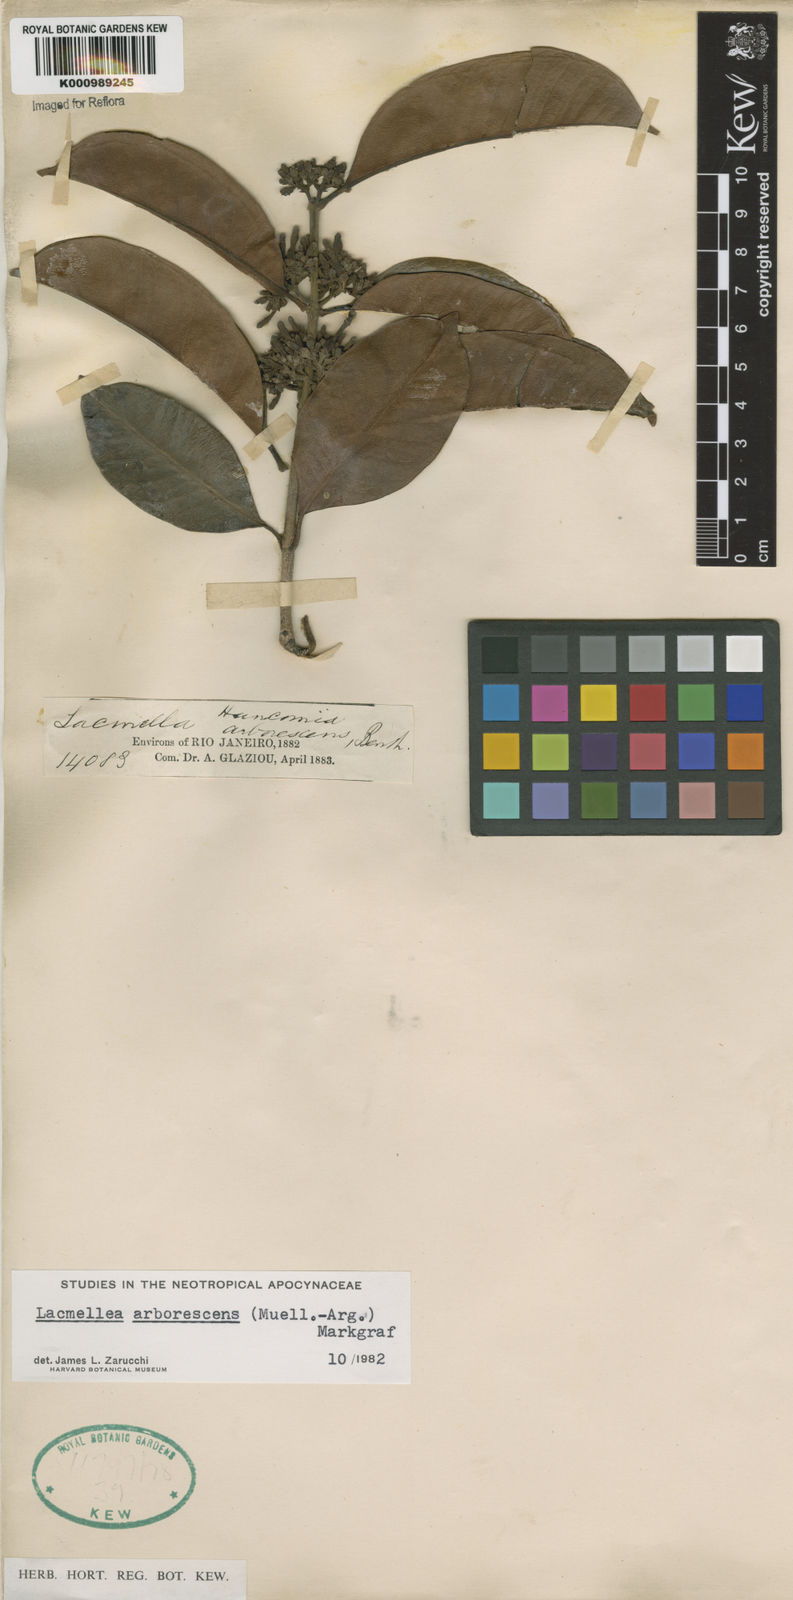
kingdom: Plantae
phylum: Tracheophyta
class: Magnoliopsida
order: Gentianales
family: Apocynaceae
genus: Lacmellea
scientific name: Lacmellea
